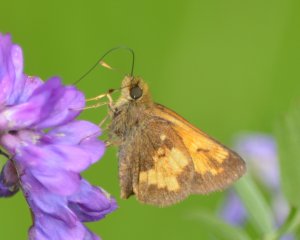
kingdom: Animalia
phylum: Arthropoda
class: Insecta
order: Lepidoptera
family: Hesperiidae
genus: Lon
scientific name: Lon hobomok
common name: Hobomok Skipper
